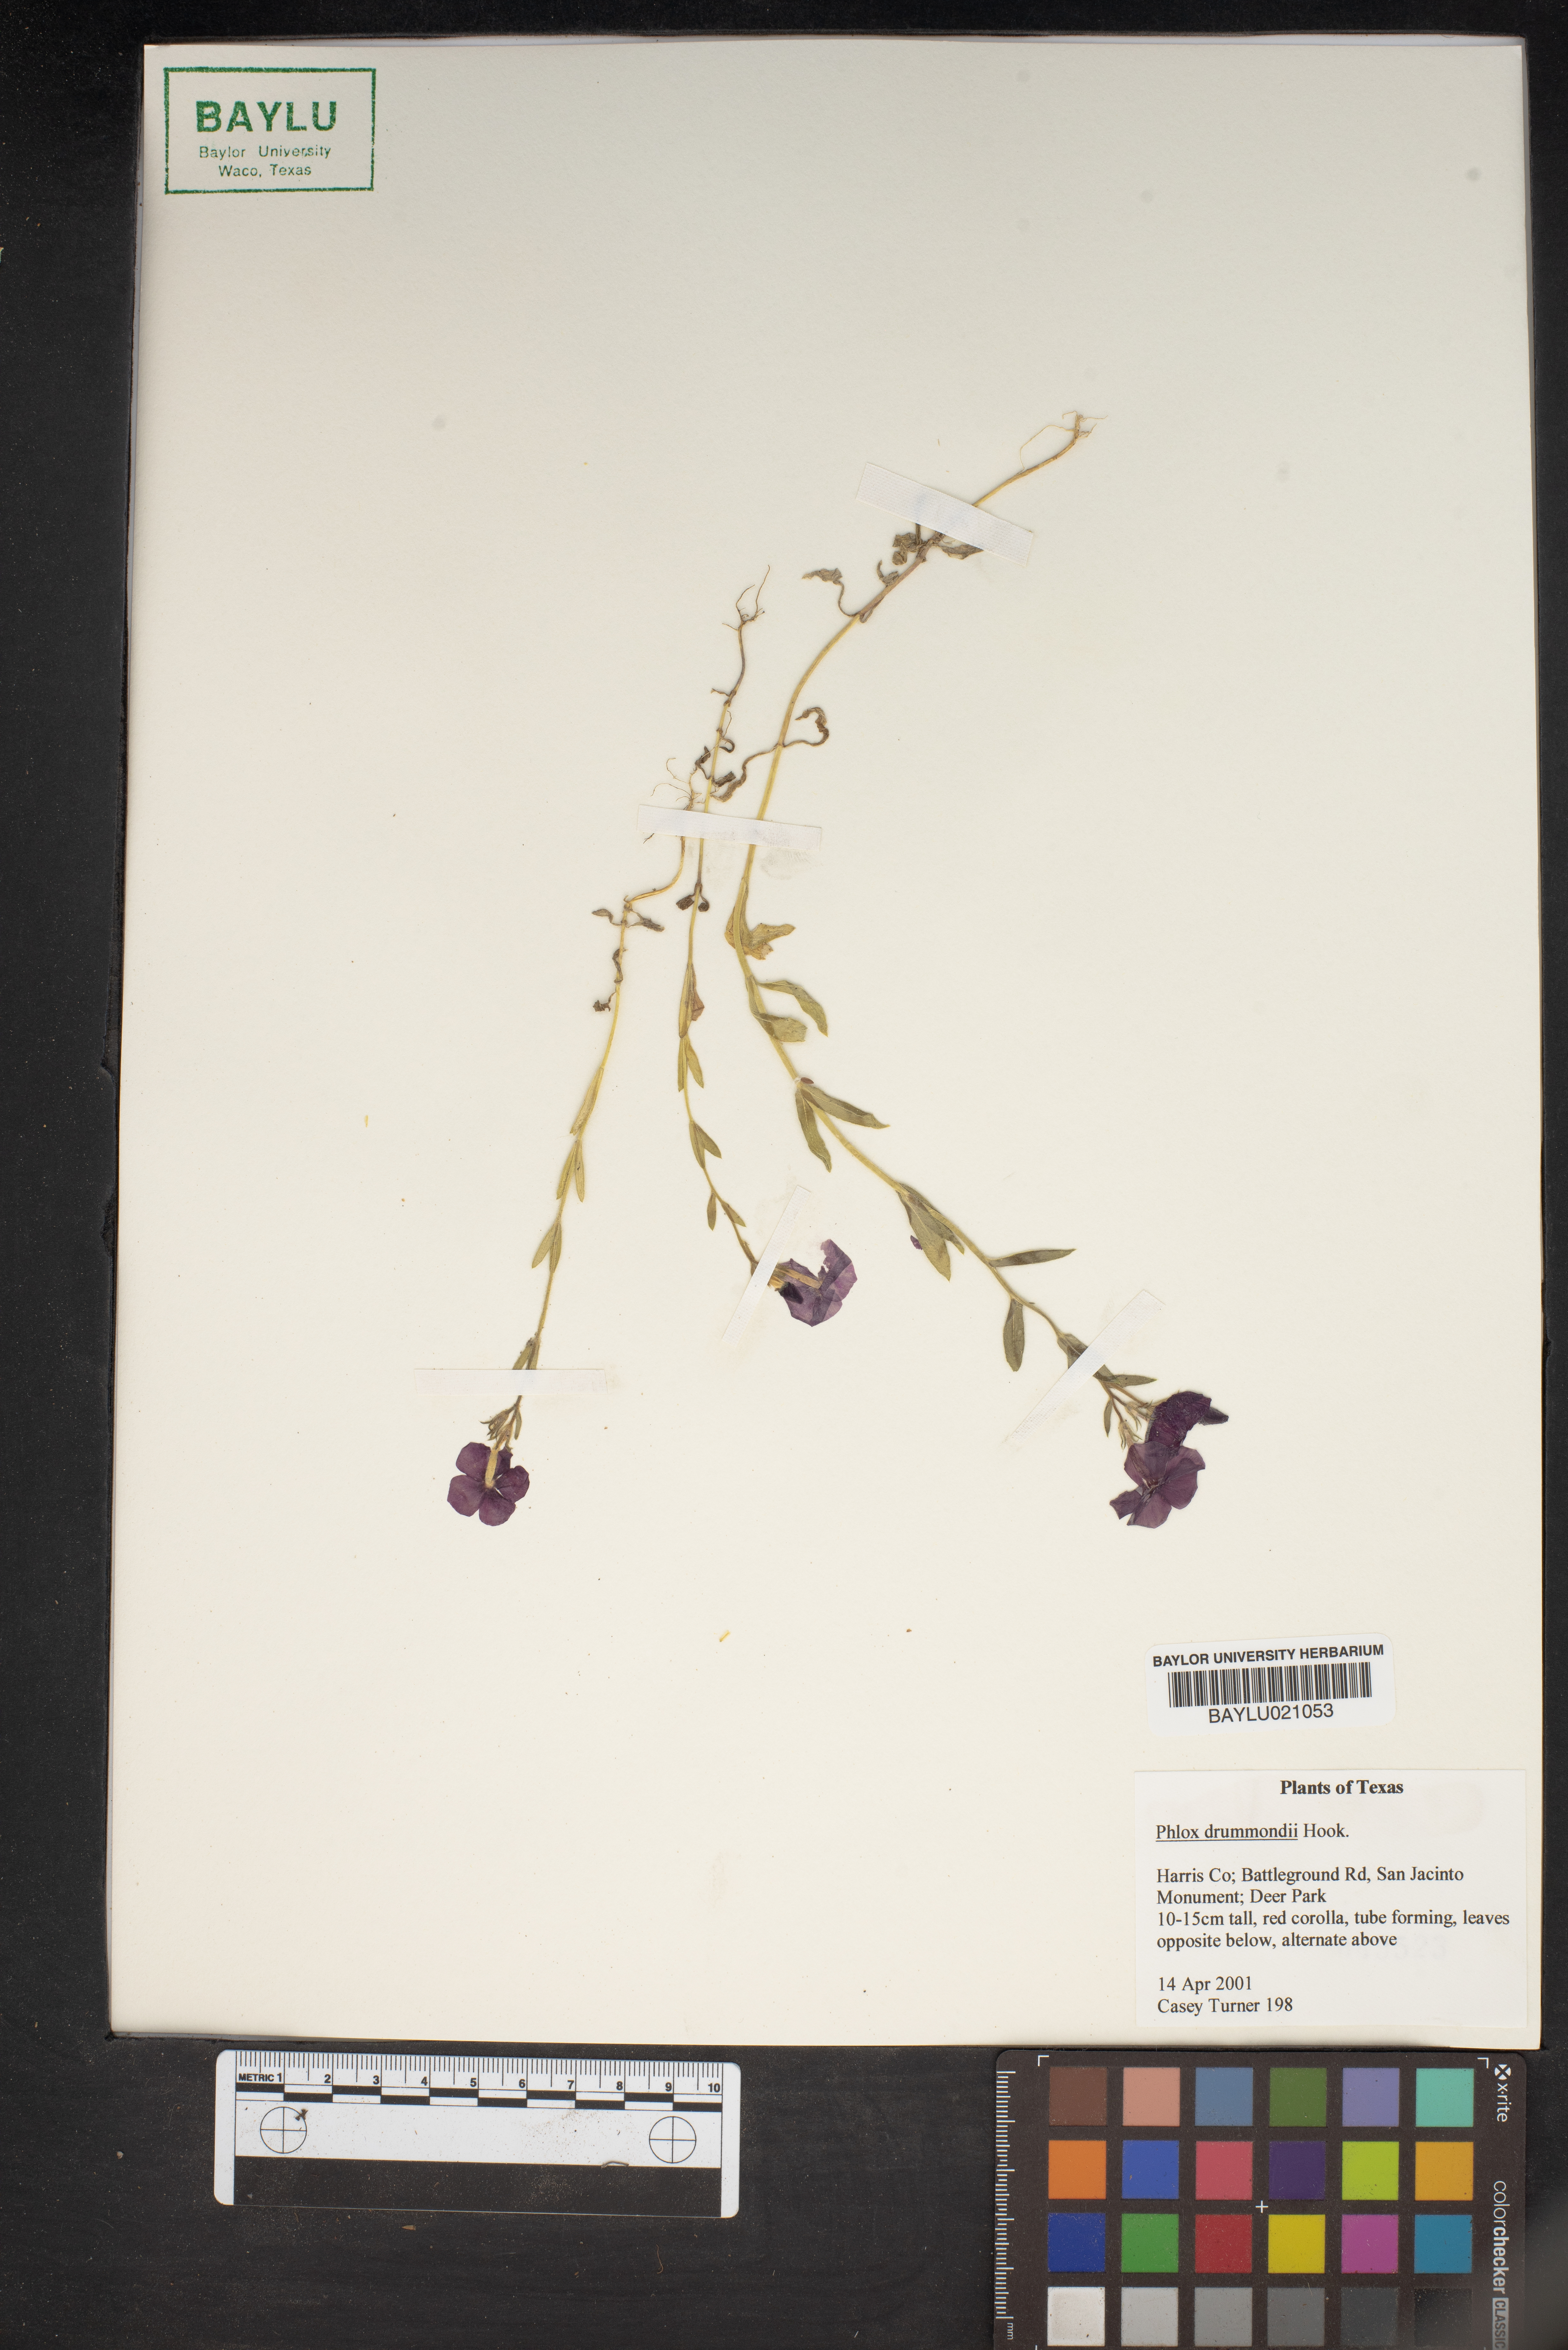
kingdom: Plantae
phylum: Tracheophyta
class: Magnoliopsida
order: Ericales
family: Polemoniaceae
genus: Phlox
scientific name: Phlox drummondii
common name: Drummond's phlox
